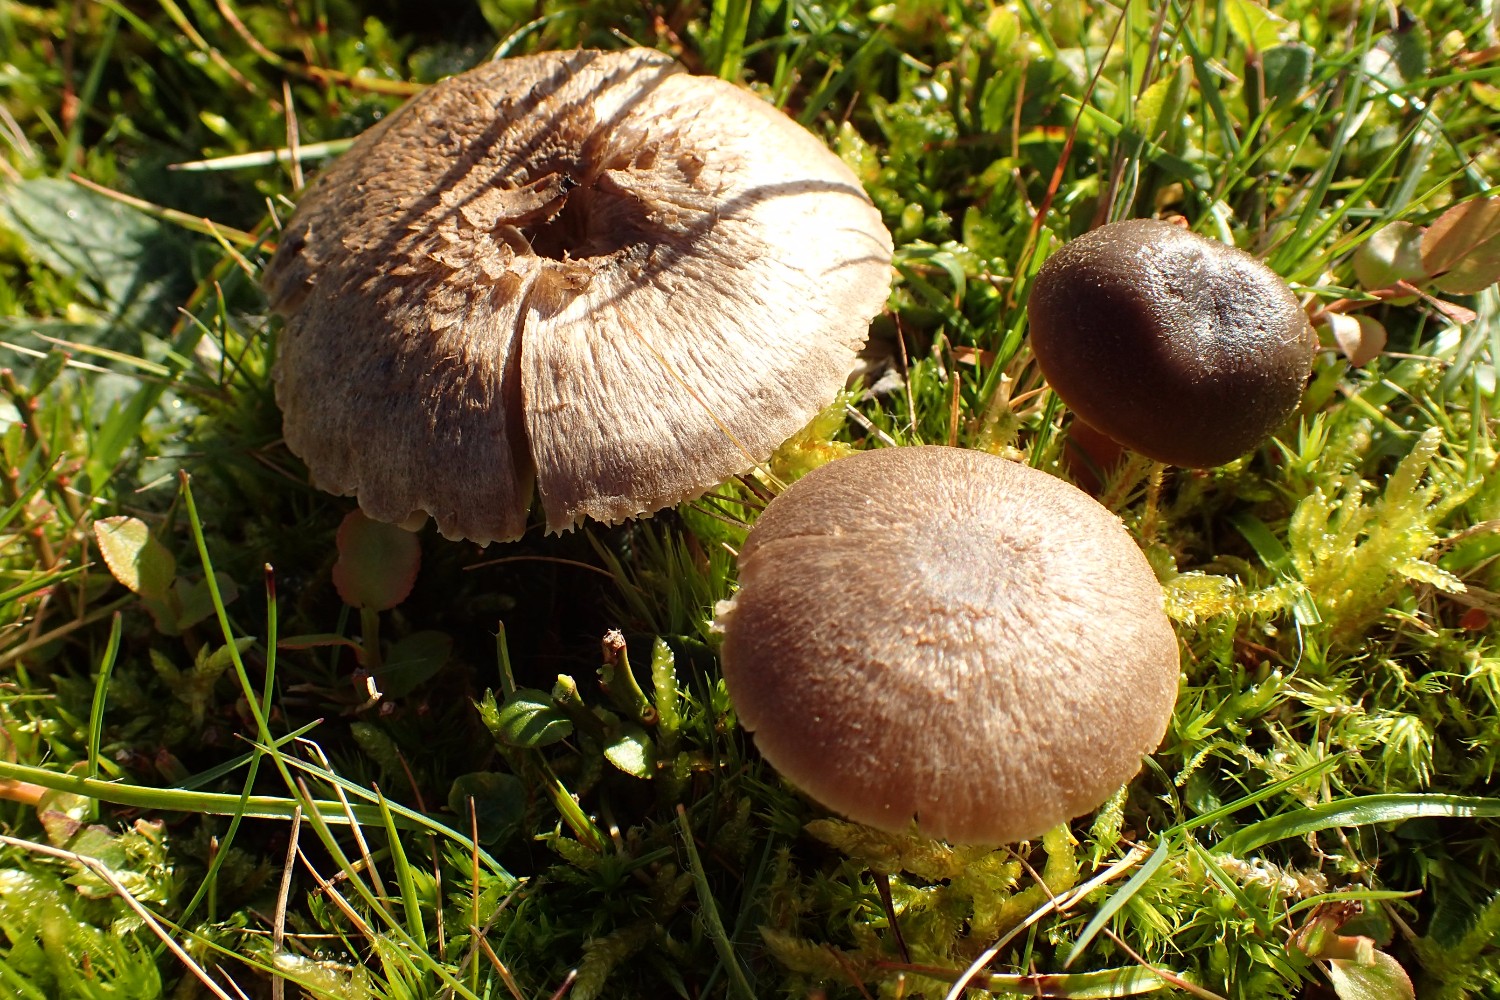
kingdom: Fungi
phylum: Basidiomycota
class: Agaricomycetes
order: Agaricales
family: Hygrophoraceae
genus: Neohygrocybe
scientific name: Neohygrocybe nitrata
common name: stinkende vokshat
